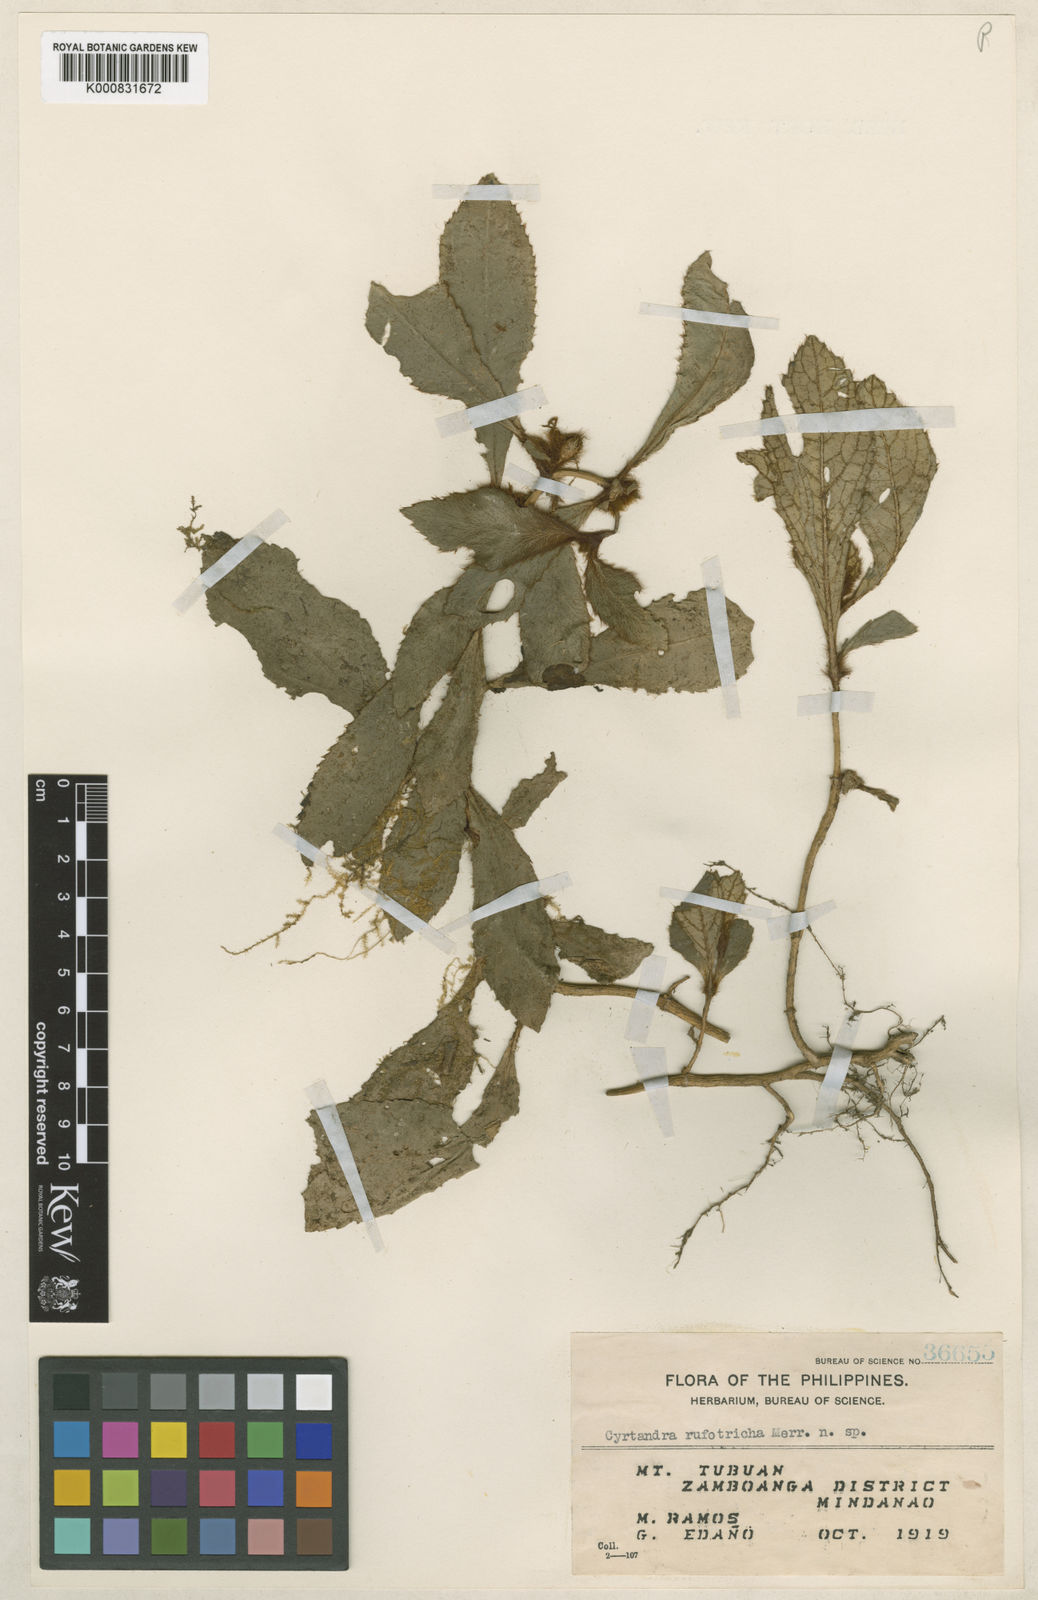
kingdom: Plantae
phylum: Tracheophyta
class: Magnoliopsida
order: Lamiales
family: Gesneriaceae
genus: Cyrtandra
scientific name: Cyrtandra rufotricha
